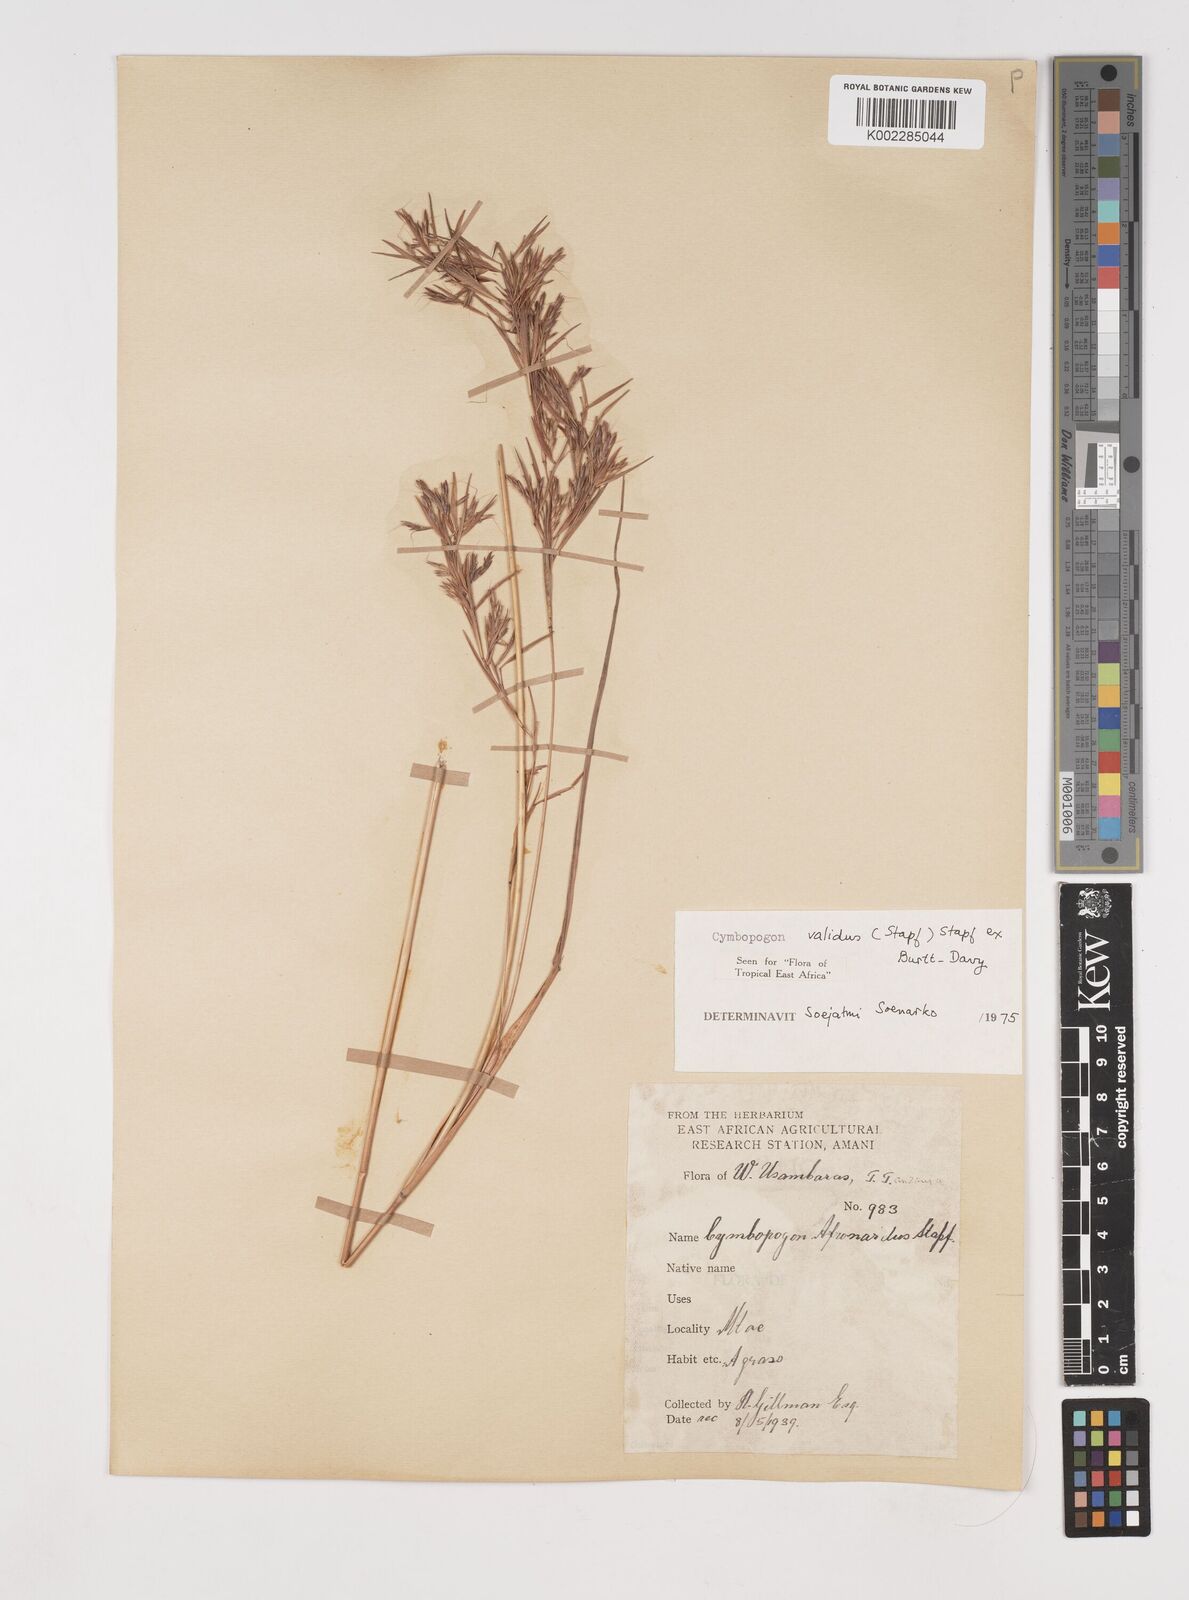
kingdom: Plantae
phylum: Tracheophyta
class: Liliopsida
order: Poales
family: Poaceae
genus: Cymbopogon
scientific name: Cymbopogon nardus
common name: Giant turpentine grass
